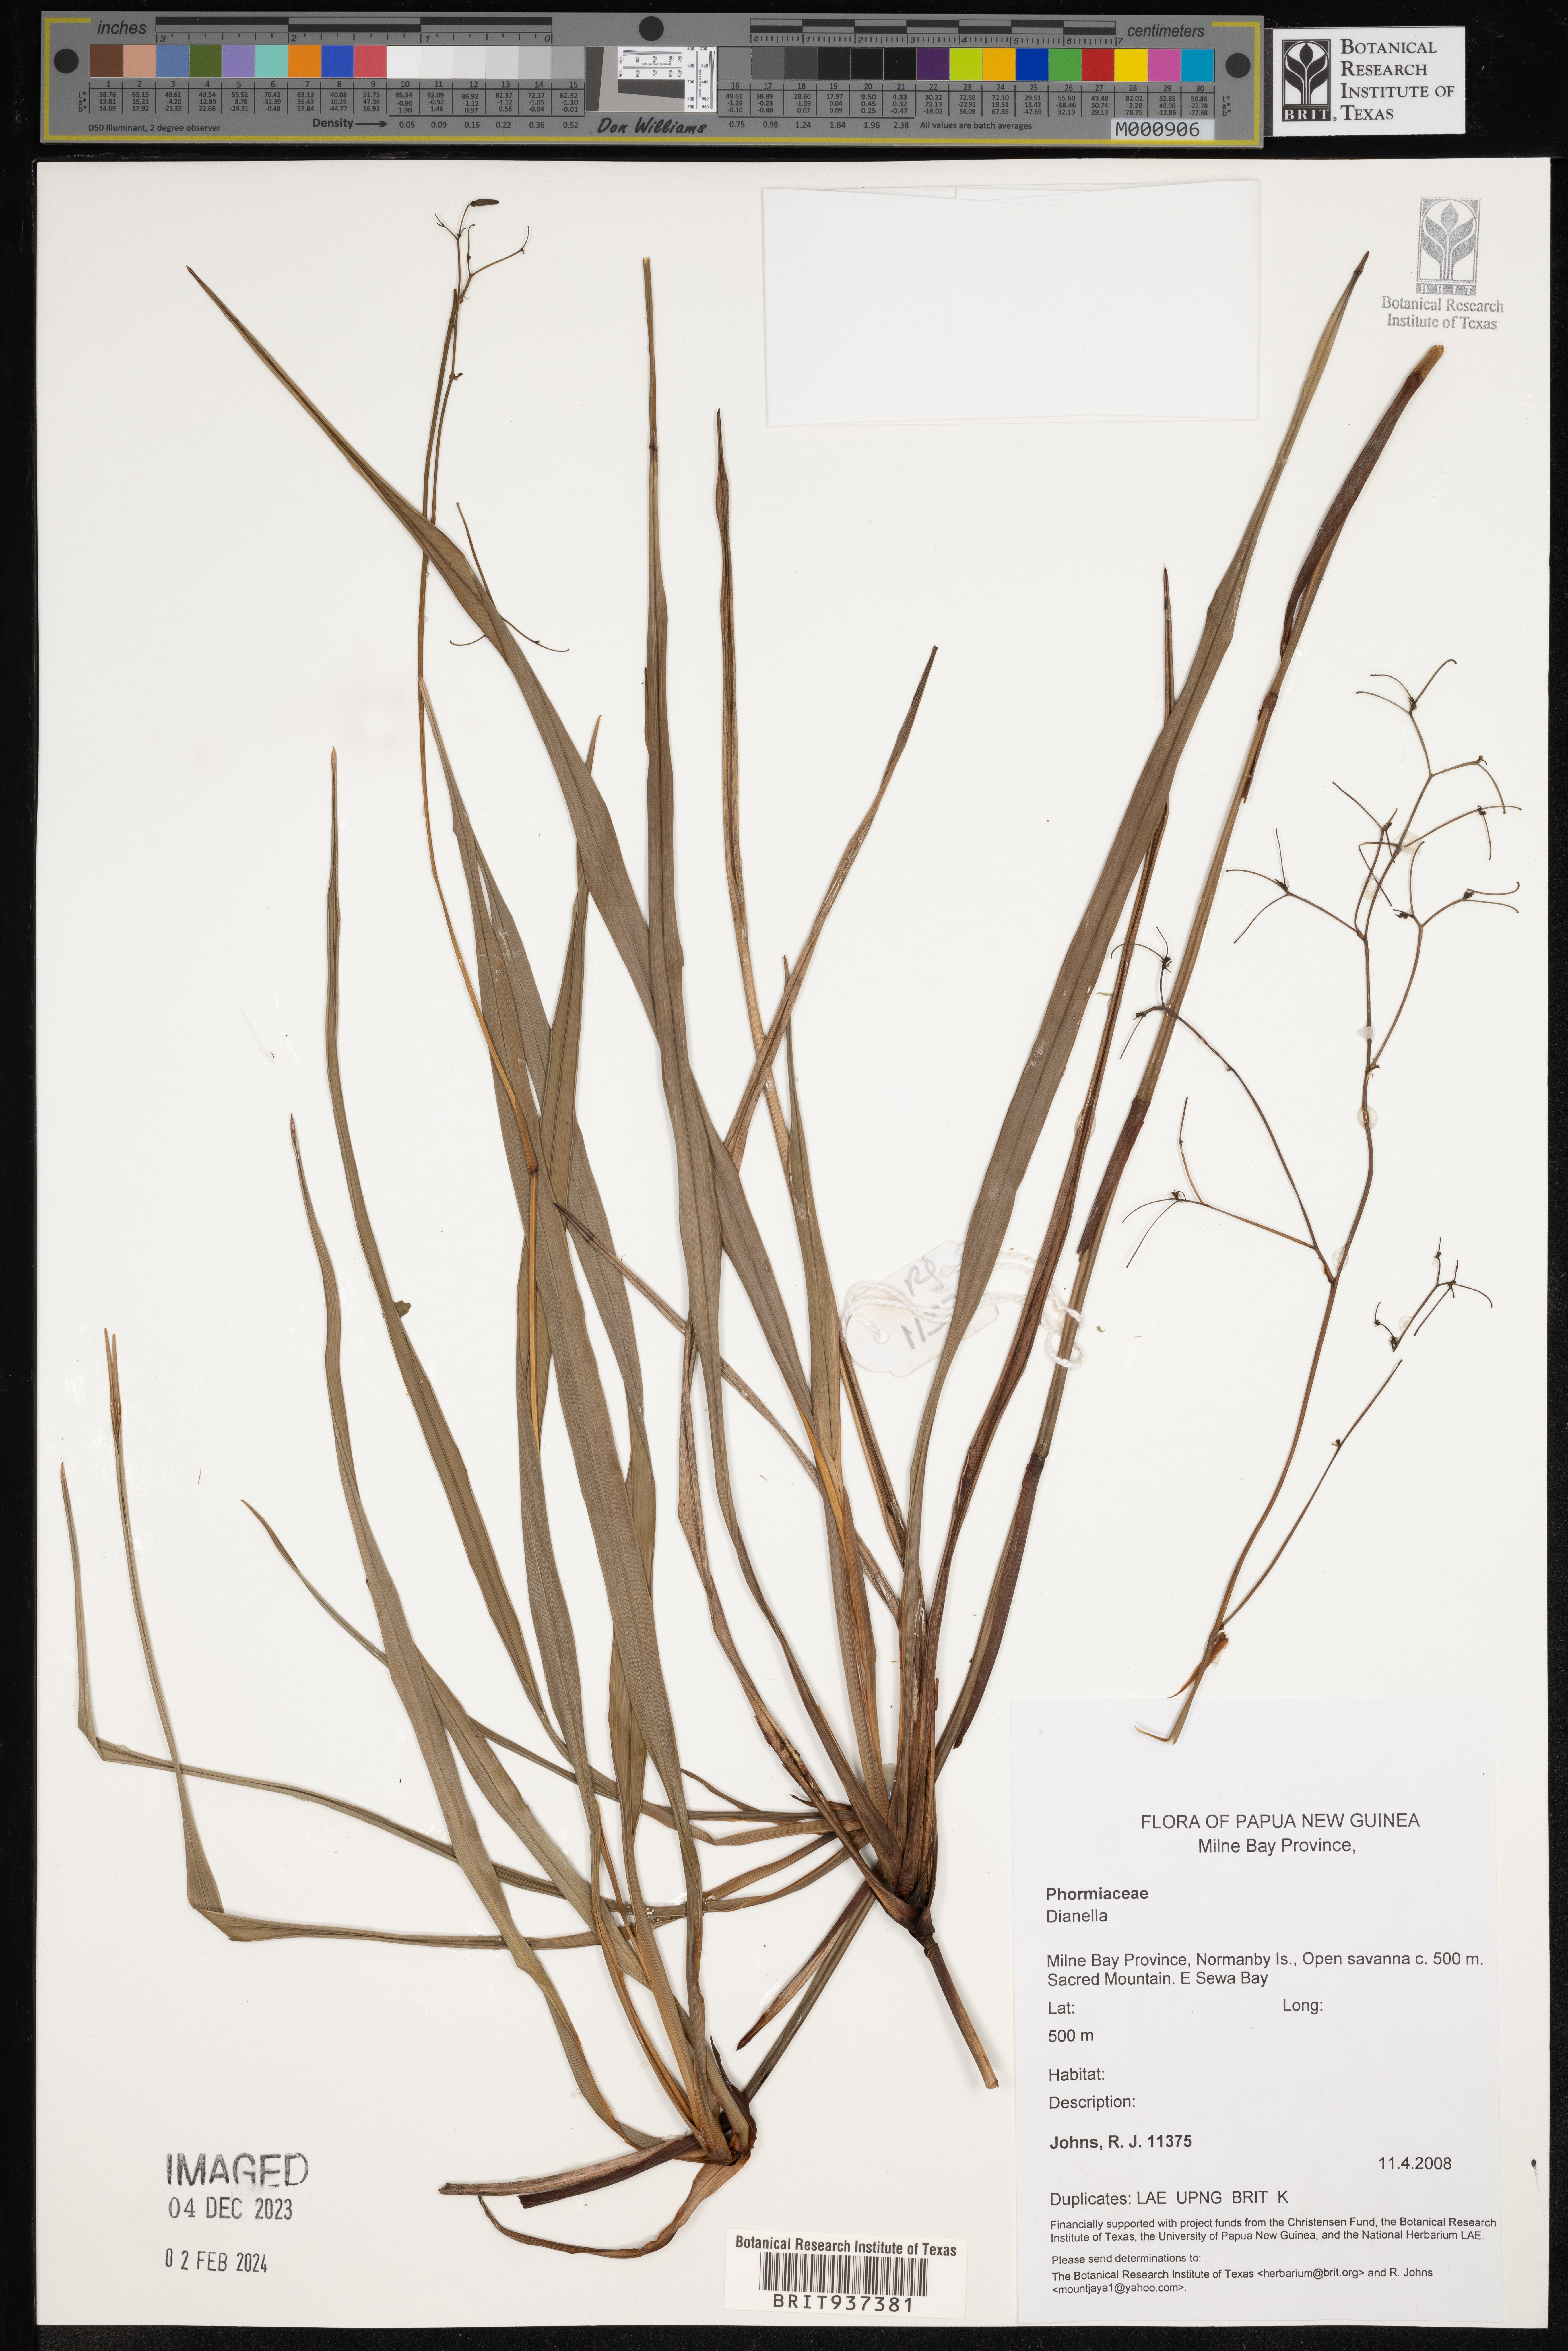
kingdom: Plantae
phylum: Tracheophyta
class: Liliopsida
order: Asparagales
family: Asphodelaceae
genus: Dianella
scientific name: Dianella
